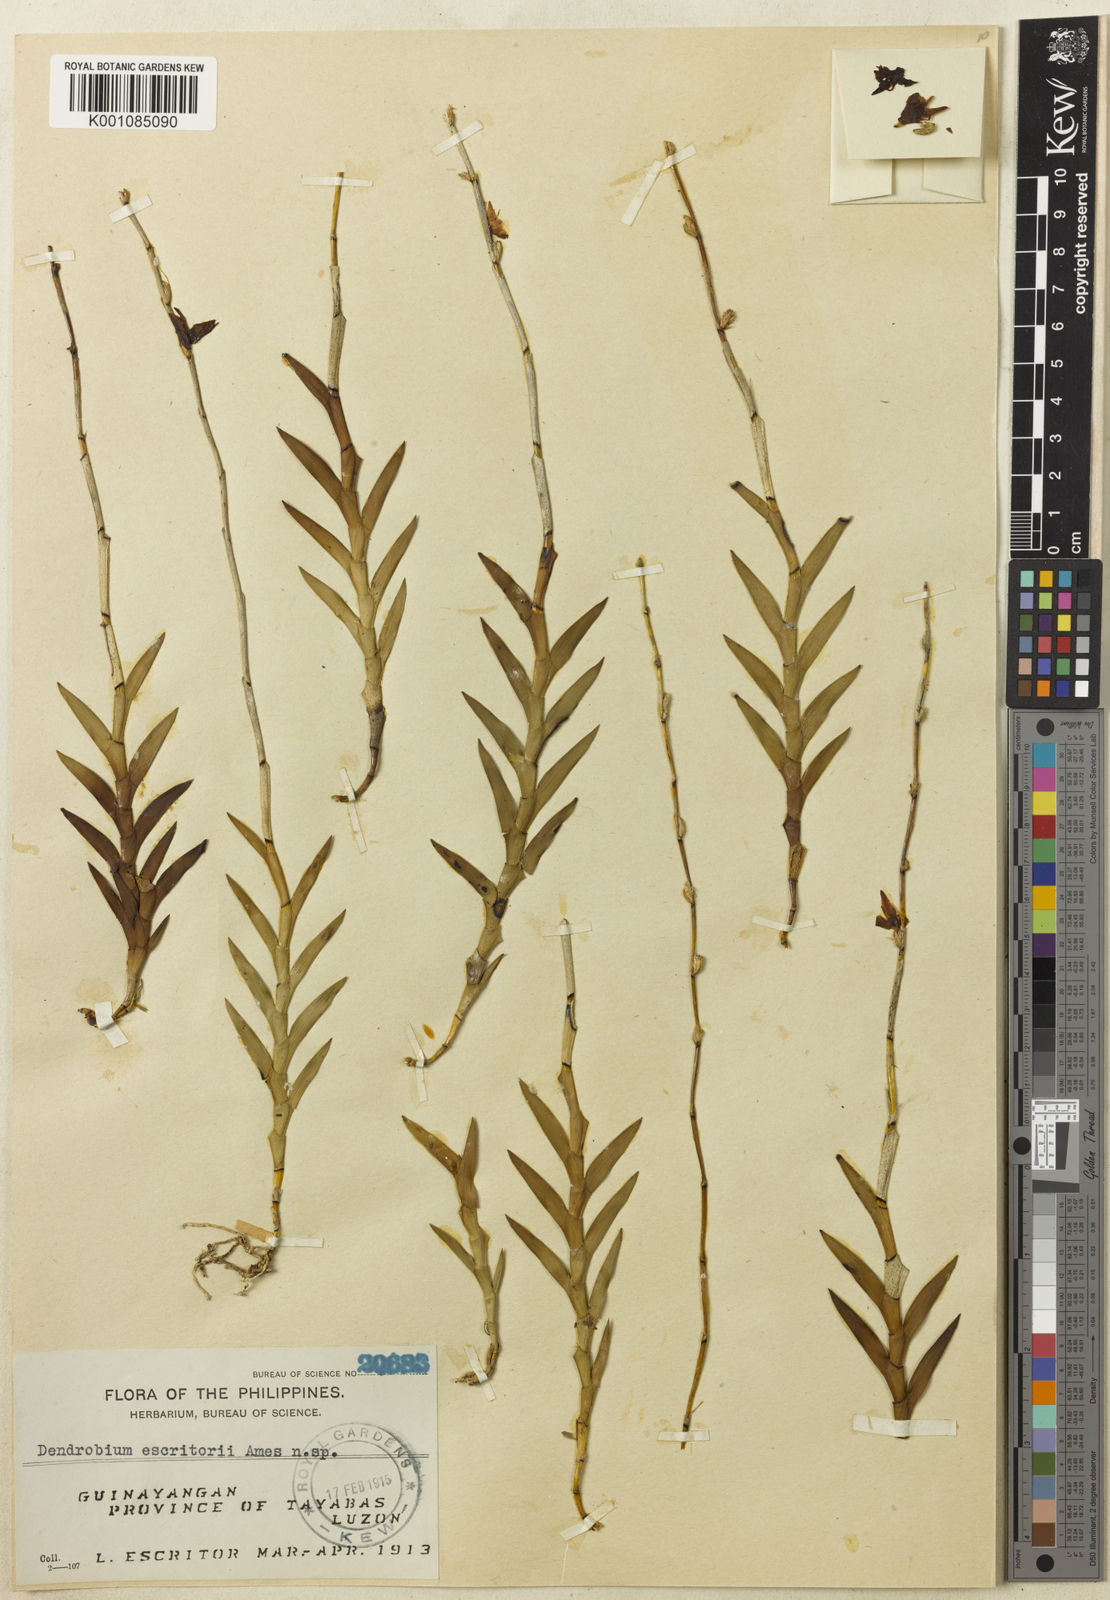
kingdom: Plantae
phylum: Tracheophyta
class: Liliopsida
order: Asparagales
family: Orchidaceae
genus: Dendrobium
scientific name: Dendrobium escritorii
